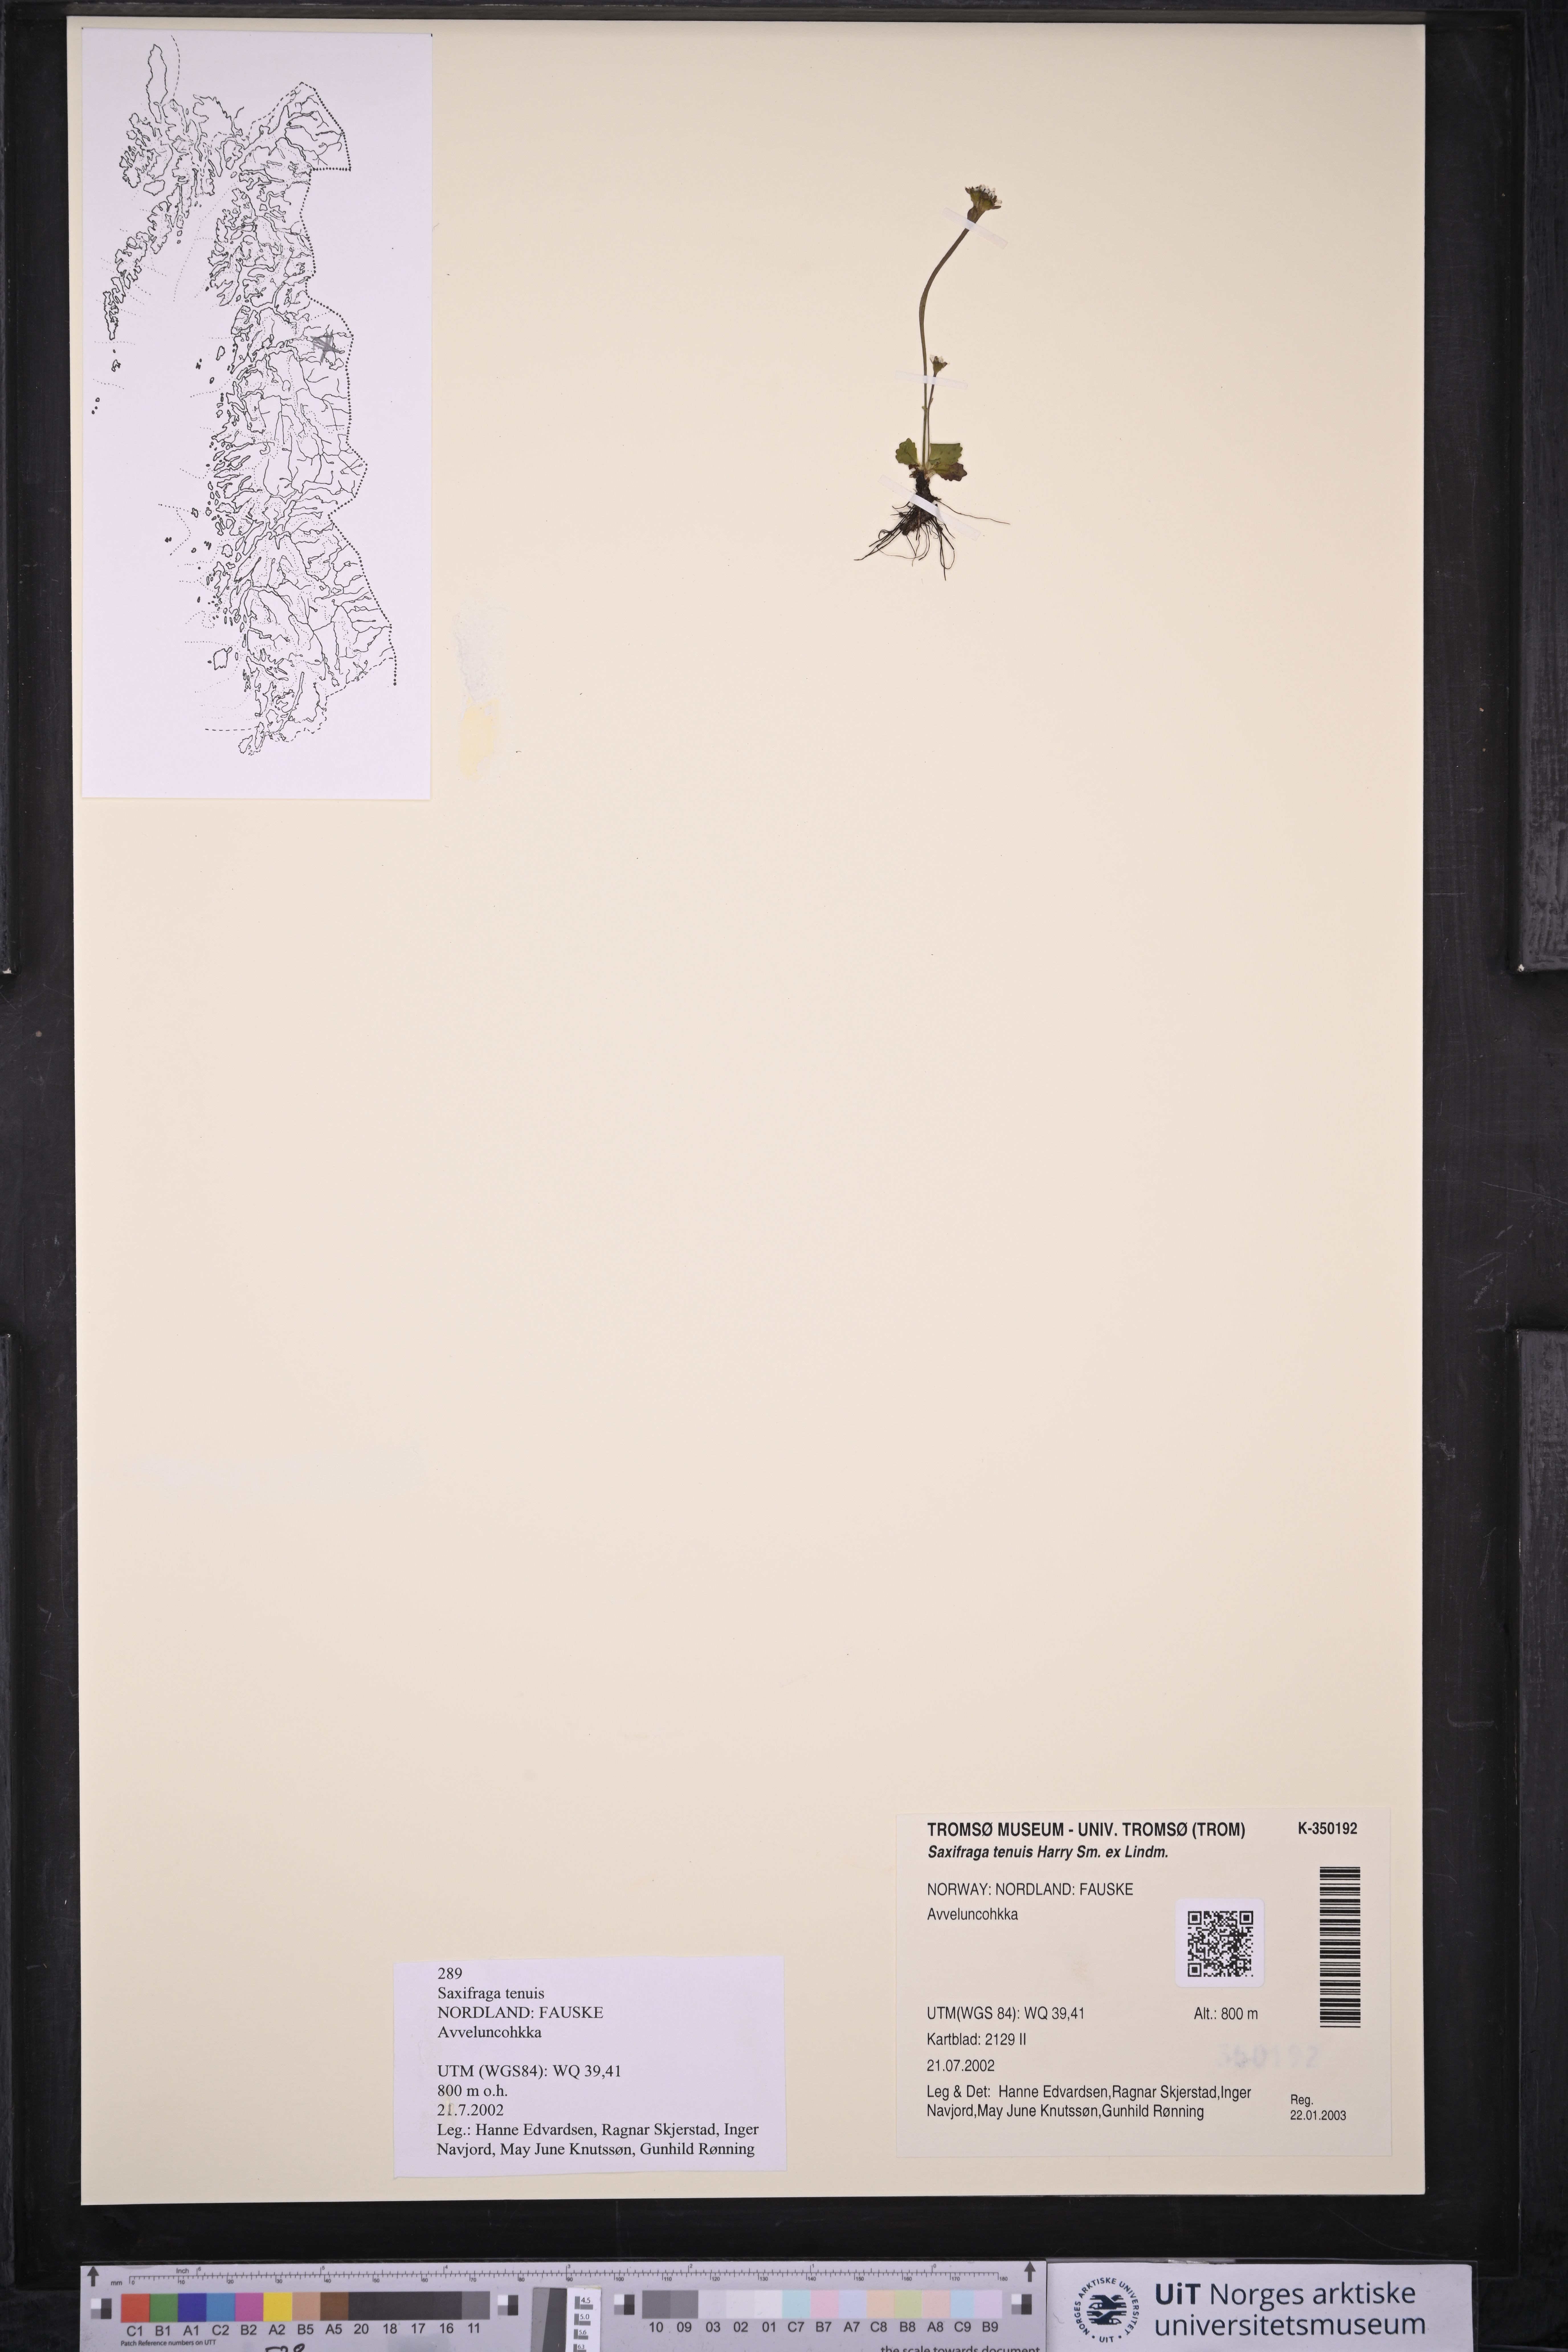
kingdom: Plantae
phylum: Tracheophyta
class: Magnoliopsida
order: Saxifragales
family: Saxifragaceae
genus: Micranthes
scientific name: Micranthes tenuis
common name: Ottertail pass saxifrage
